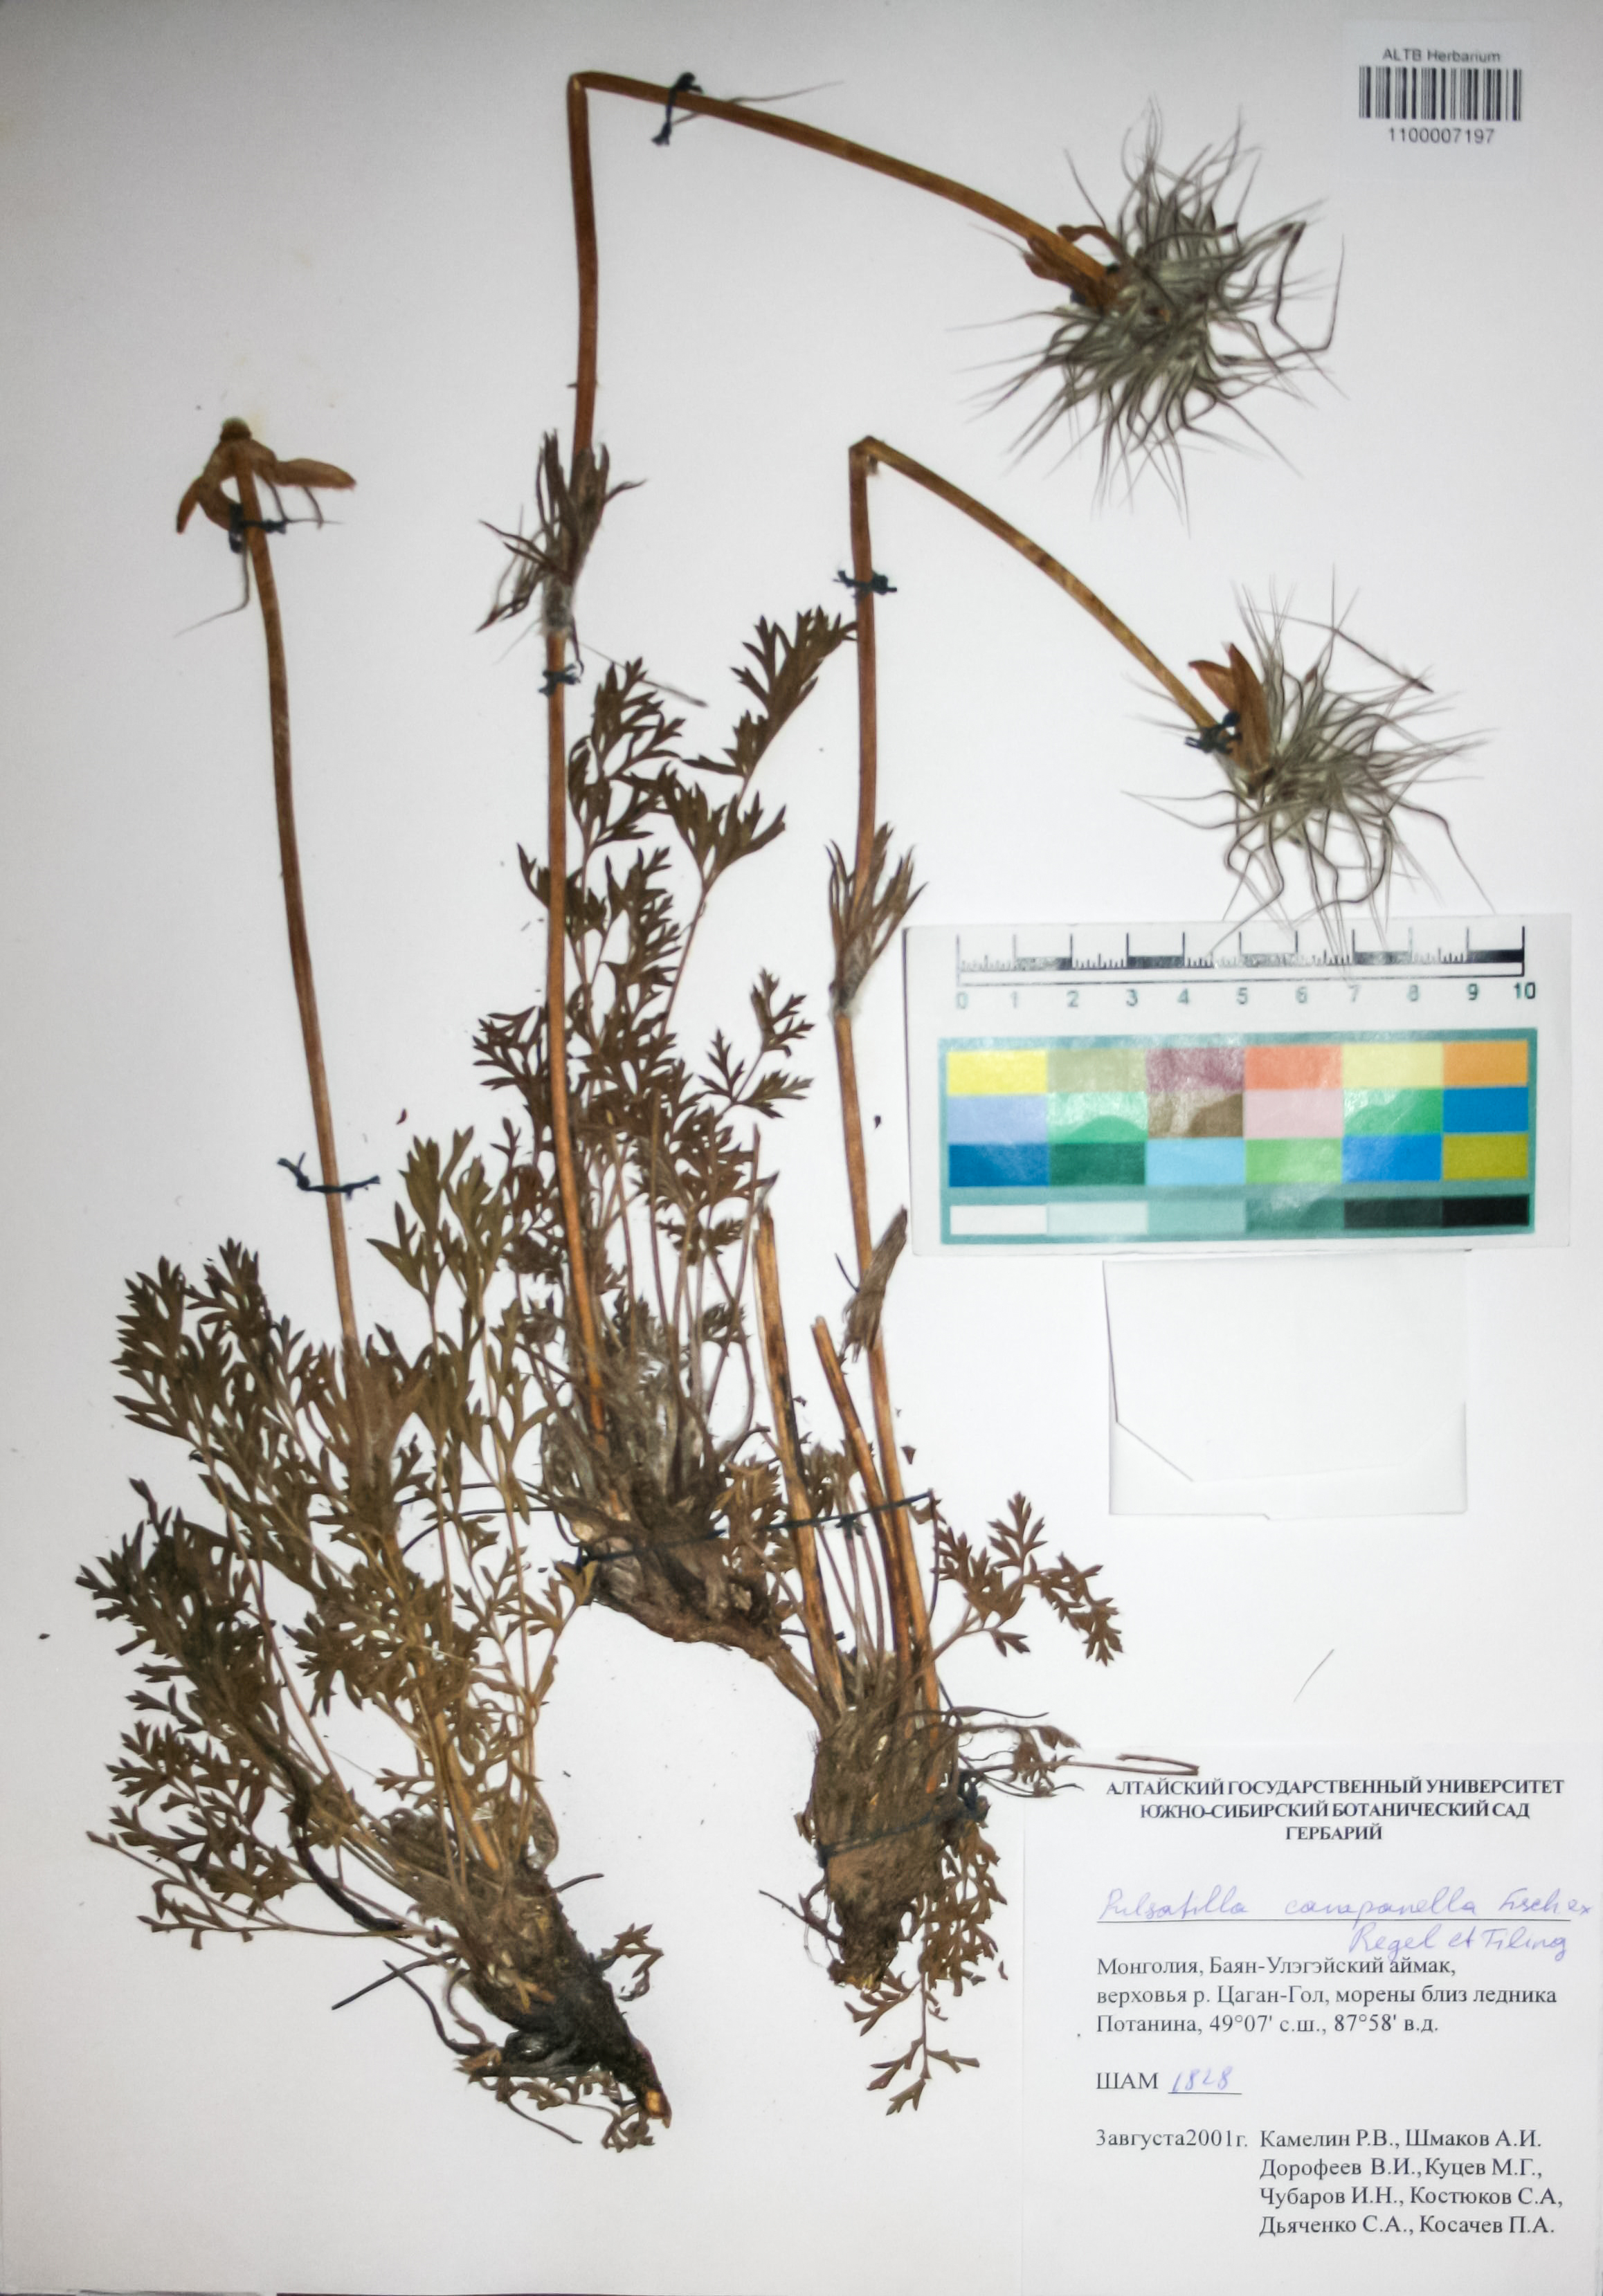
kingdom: Plantae
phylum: Tracheophyta
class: Magnoliopsida
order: Ranunculales
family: Ranunculaceae
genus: Pulsatilla
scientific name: Pulsatilla campanella
